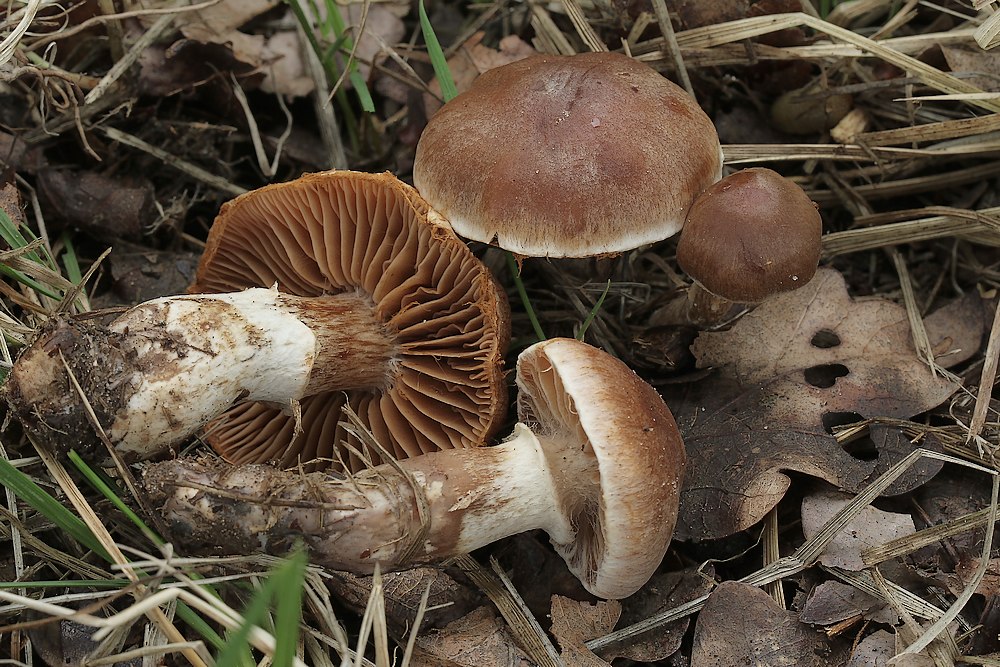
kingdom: Fungi
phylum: Basidiomycota
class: Agaricomycetes
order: Agaricales
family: Cortinariaceae
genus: Cortinarius
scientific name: Cortinarius
